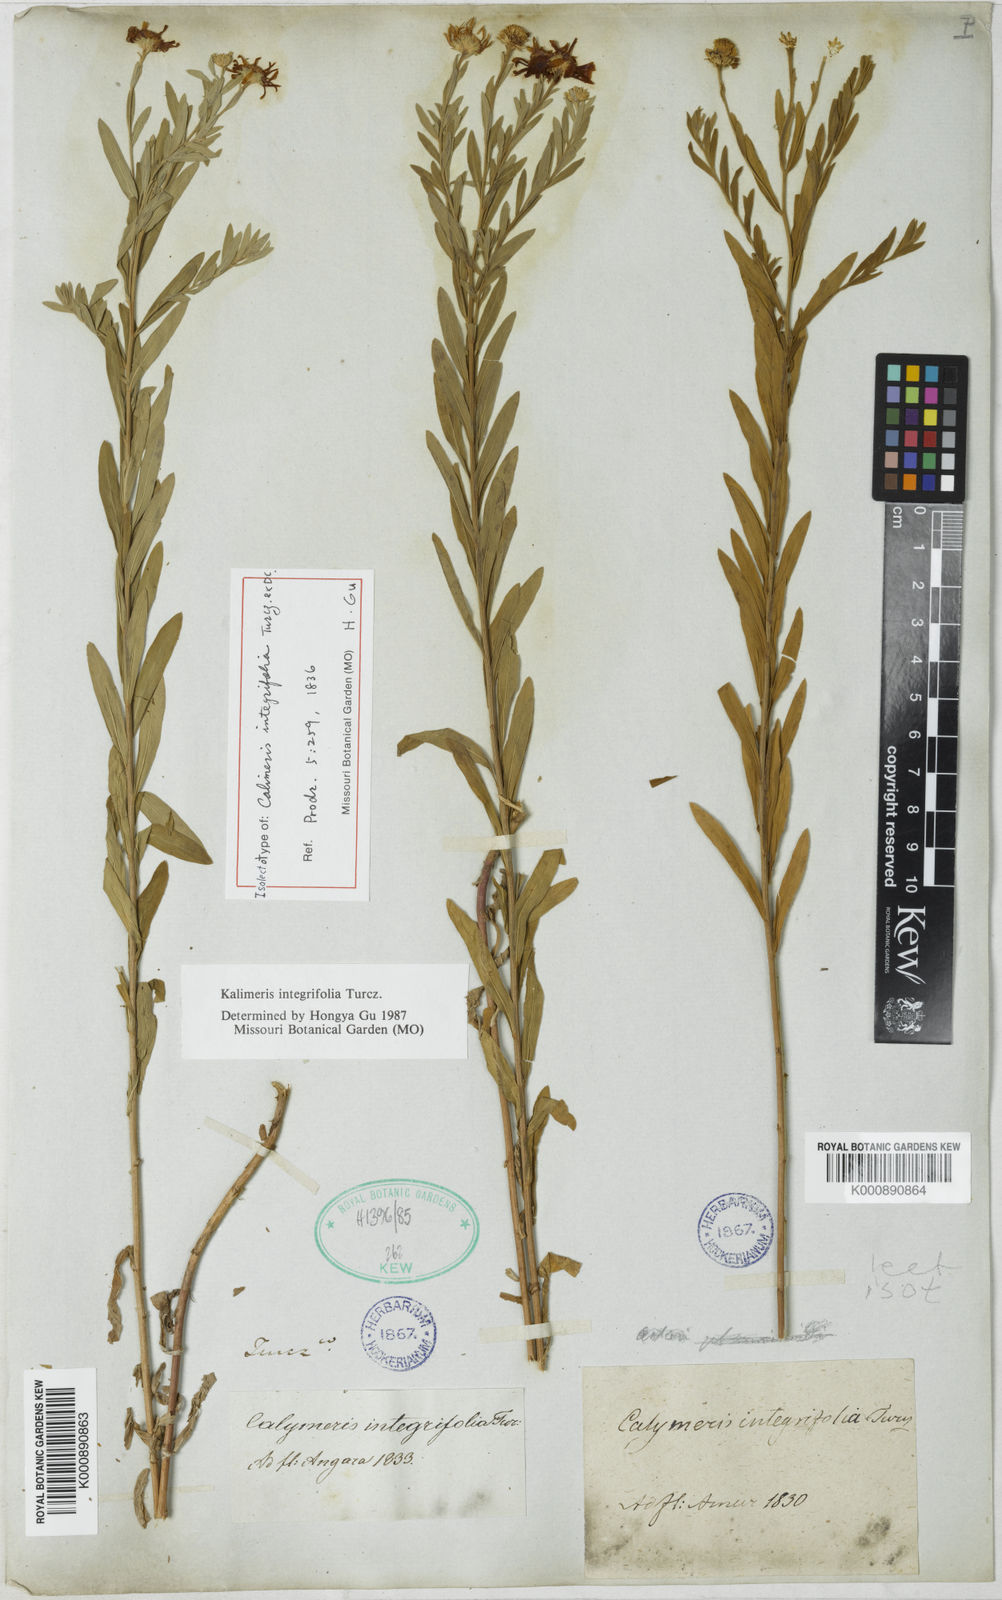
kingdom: Plantae
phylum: Tracheophyta
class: Magnoliopsida
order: Asterales
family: Asteraceae
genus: Kalimeris
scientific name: Kalimeris
